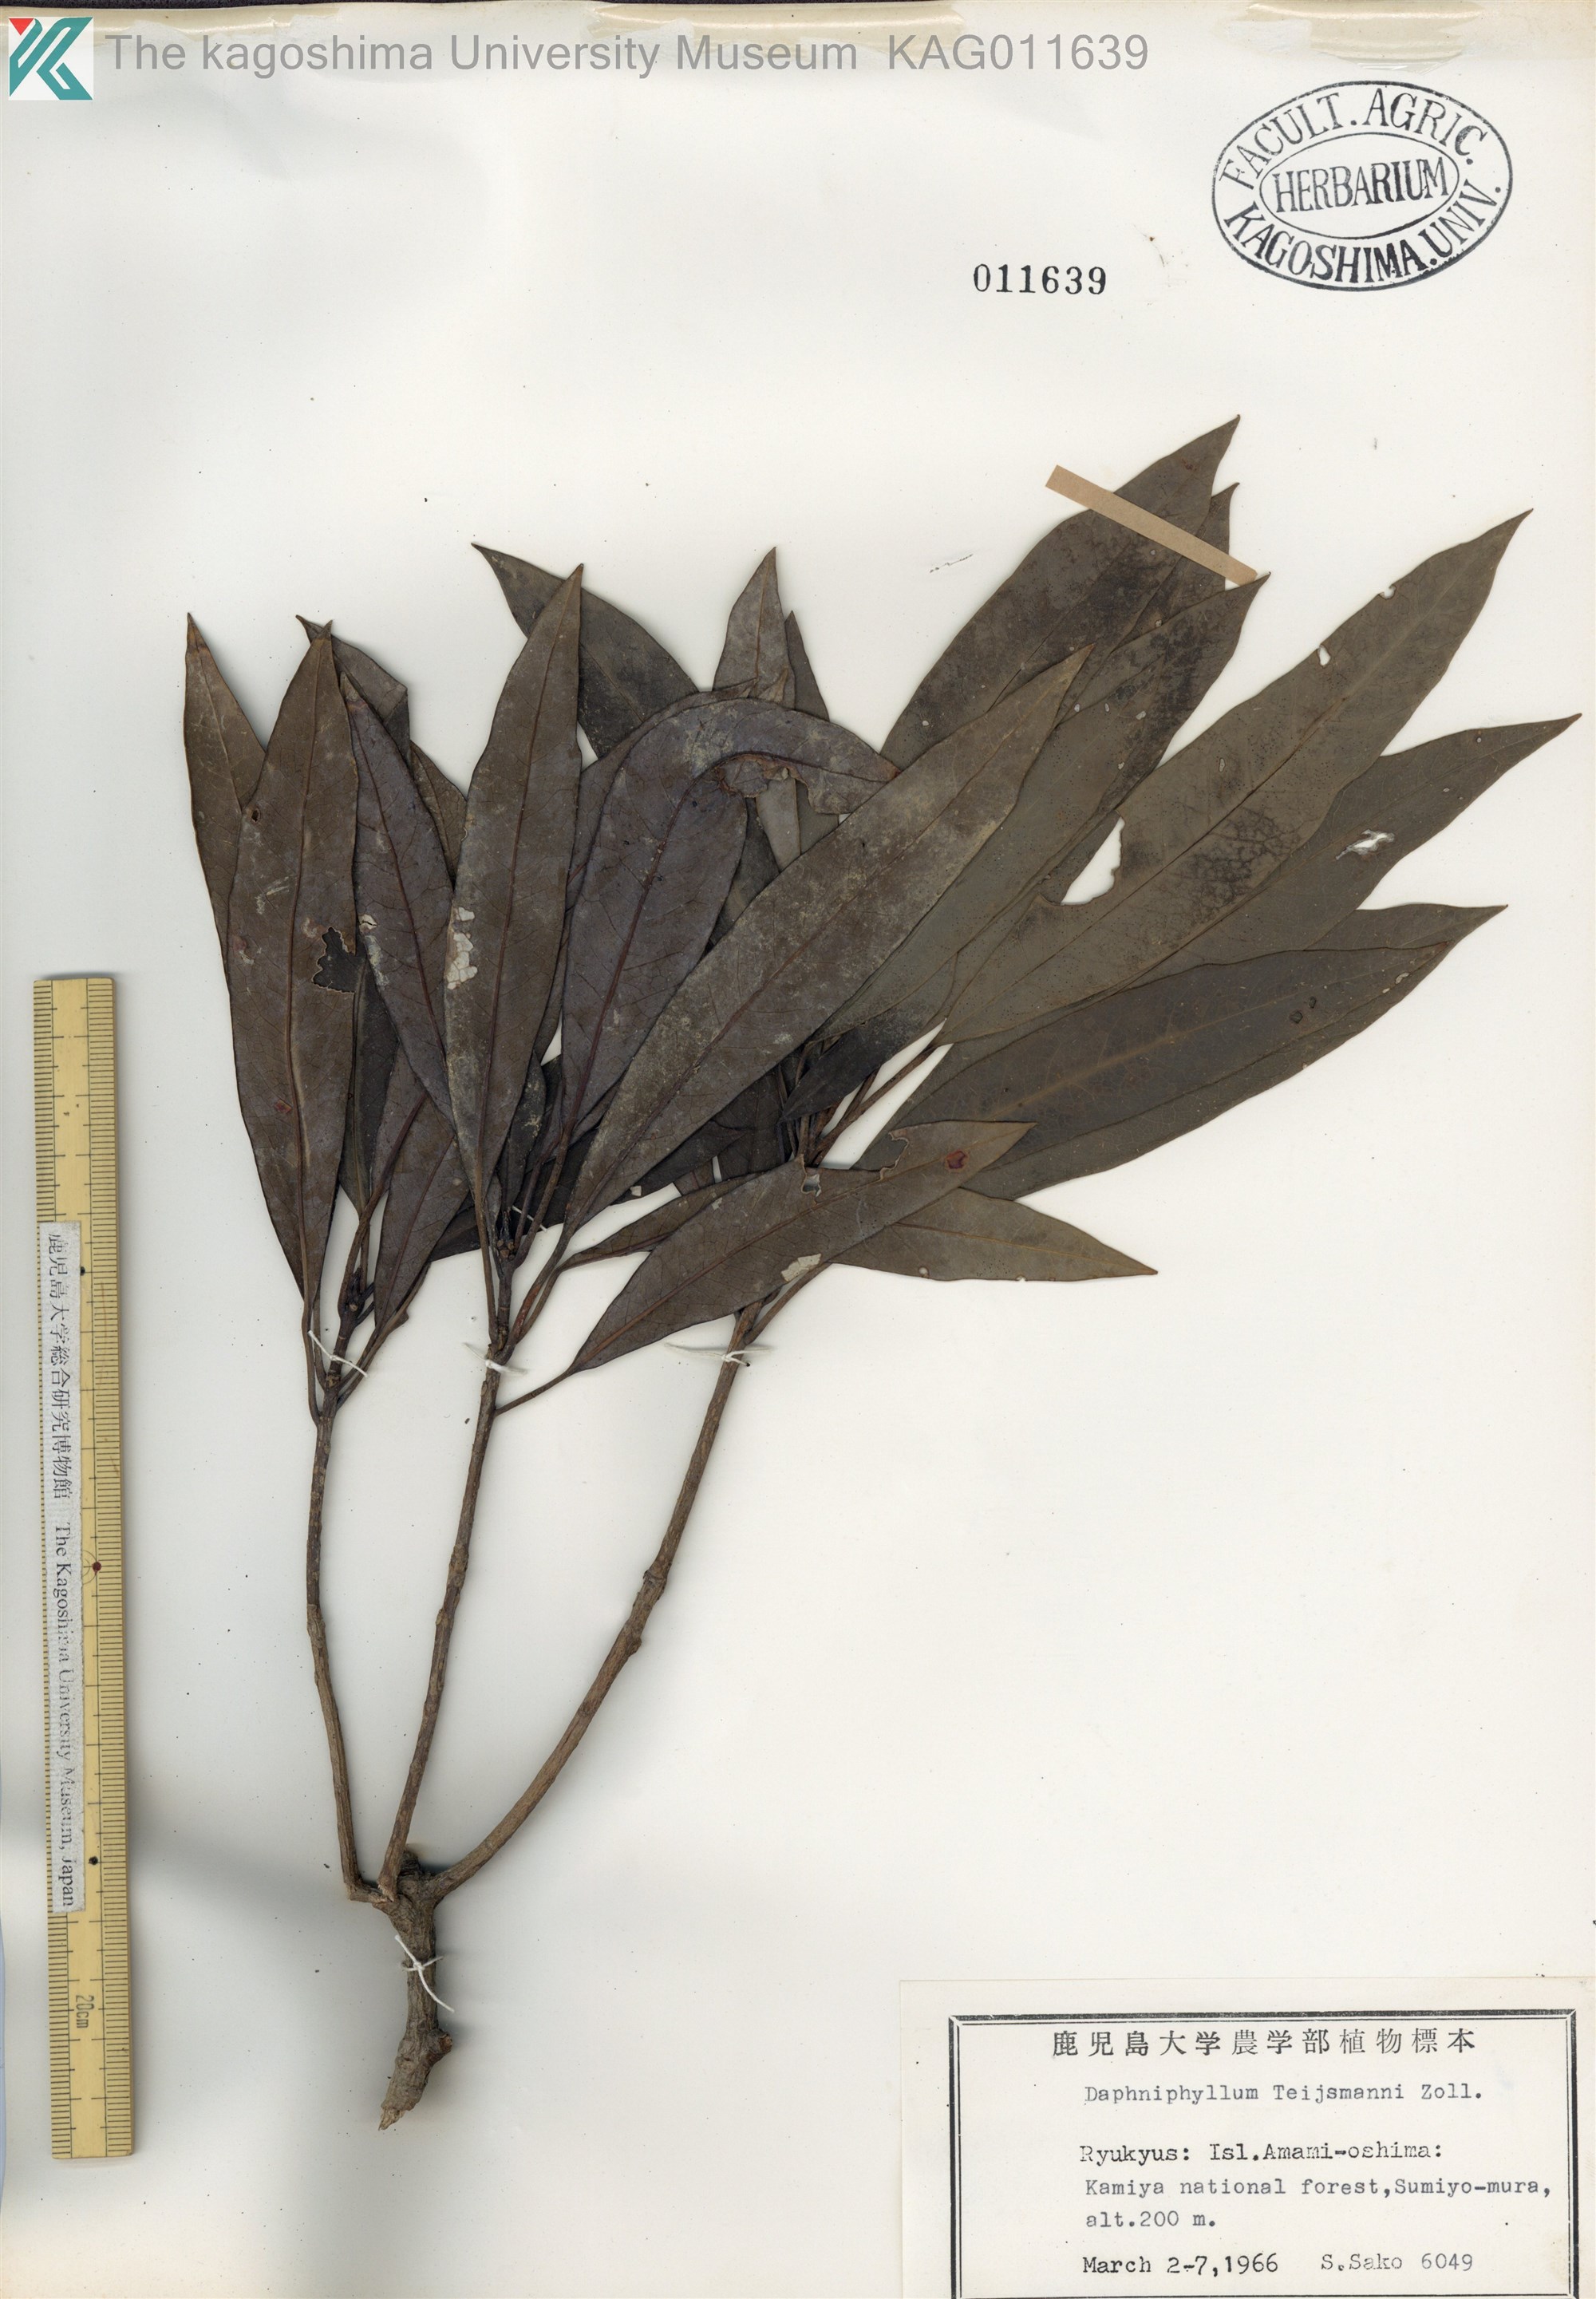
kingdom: Plantae
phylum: Tracheophyta
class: Magnoliopsida
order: Saxifragales
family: Daphniphyllaceae
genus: Daphniphyllum
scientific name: Daphniphyllum teijsmannii
